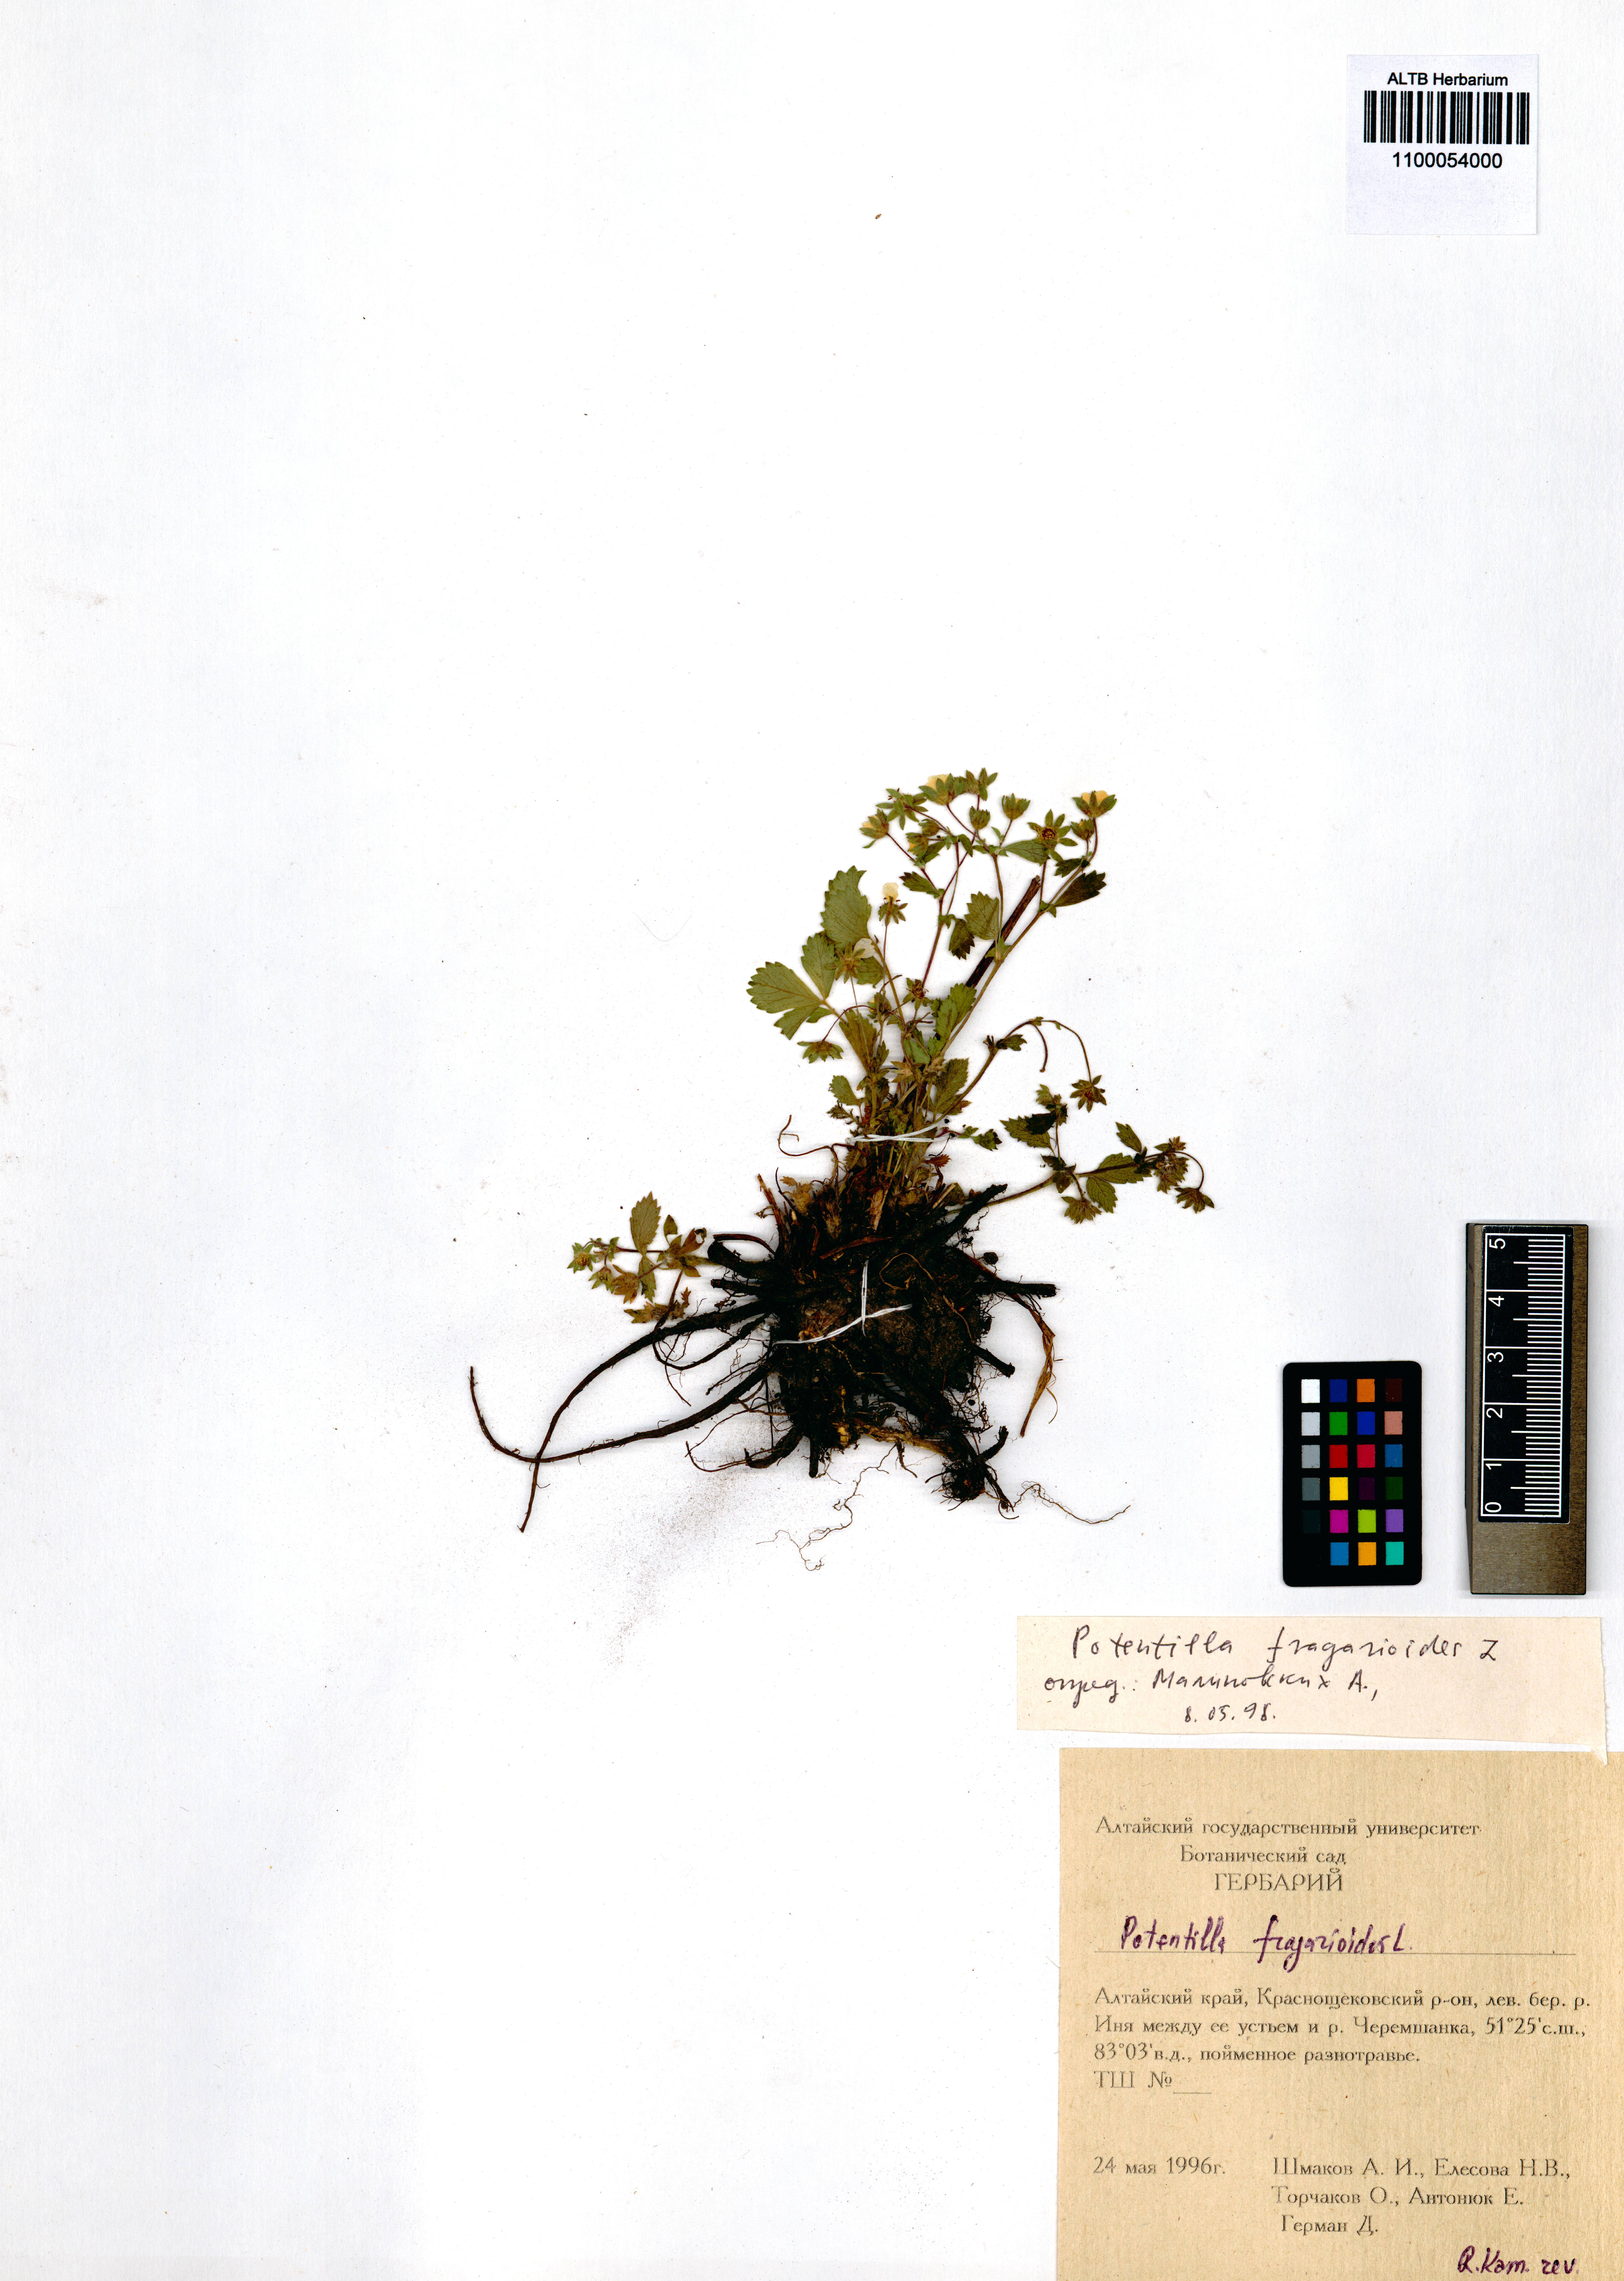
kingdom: Plantae
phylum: Tracheophyta
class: Magnoliopsida
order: Rosales
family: Rosaceae
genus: Potentilla
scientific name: Potentilla fragarioides
